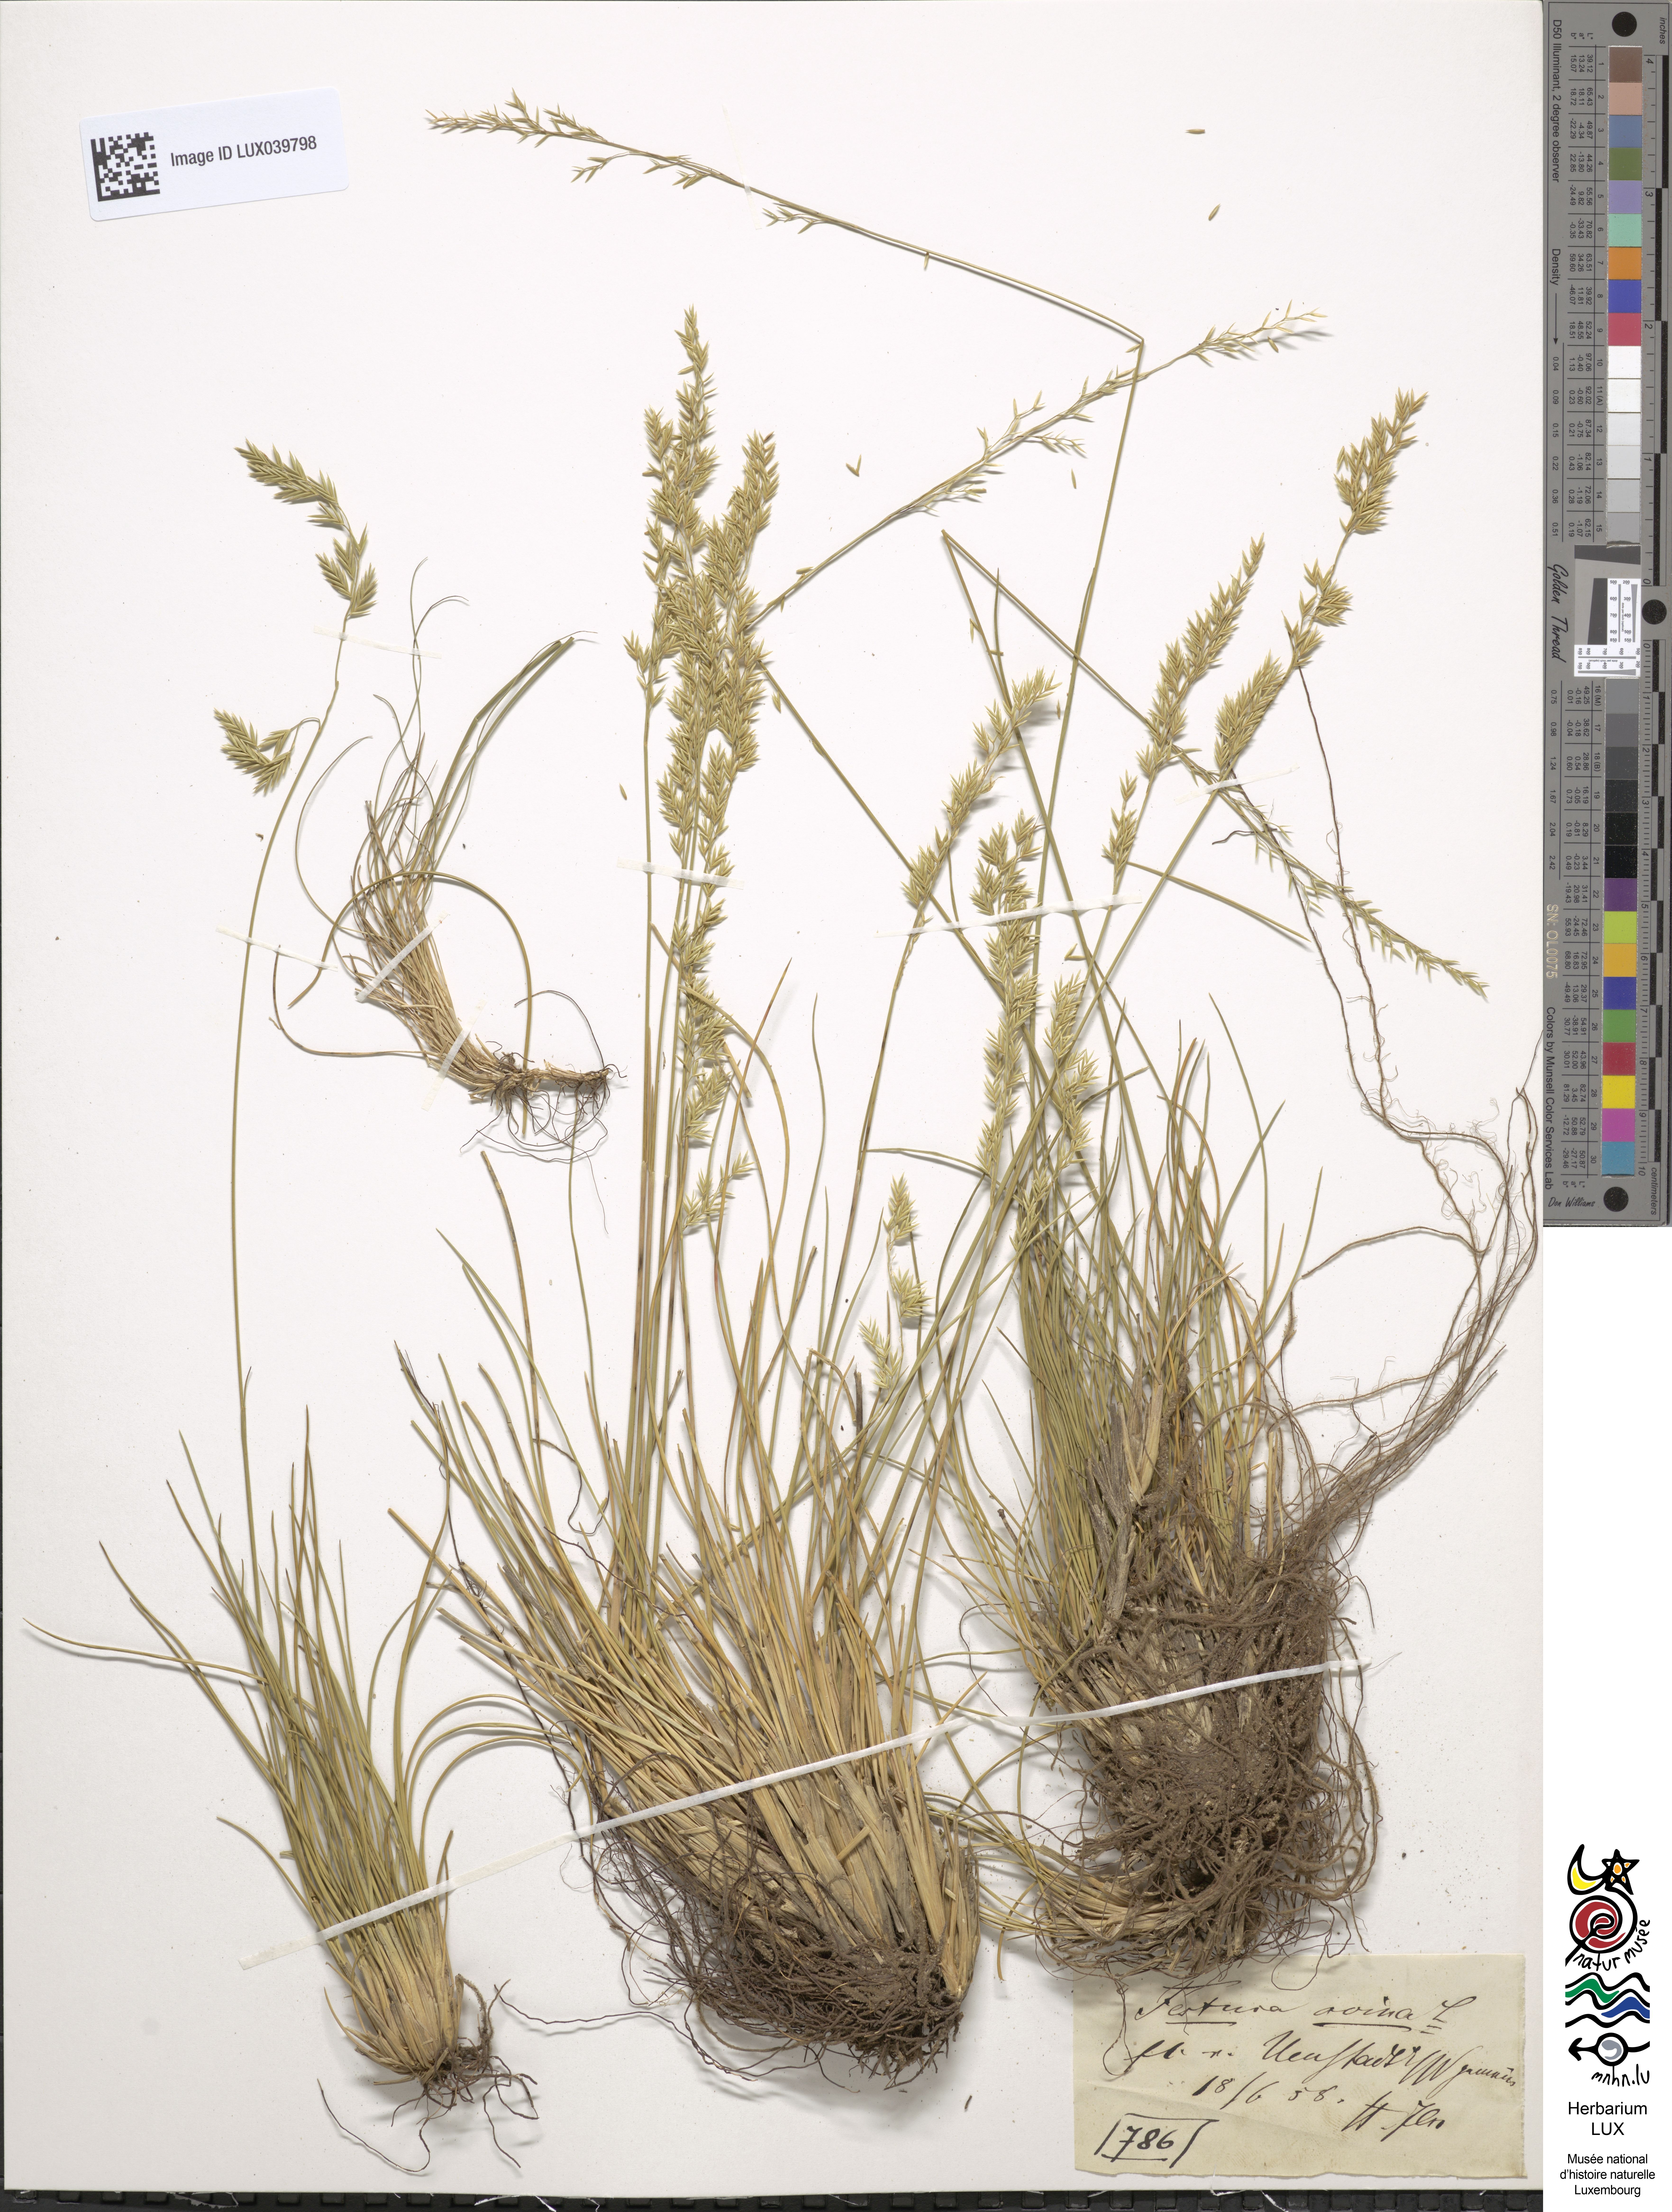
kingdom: Plantae
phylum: Tracheophyta
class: Liliopsida
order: Poales
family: Poaceae
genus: Festuca
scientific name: Festuca ovina
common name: Sheep fescue
